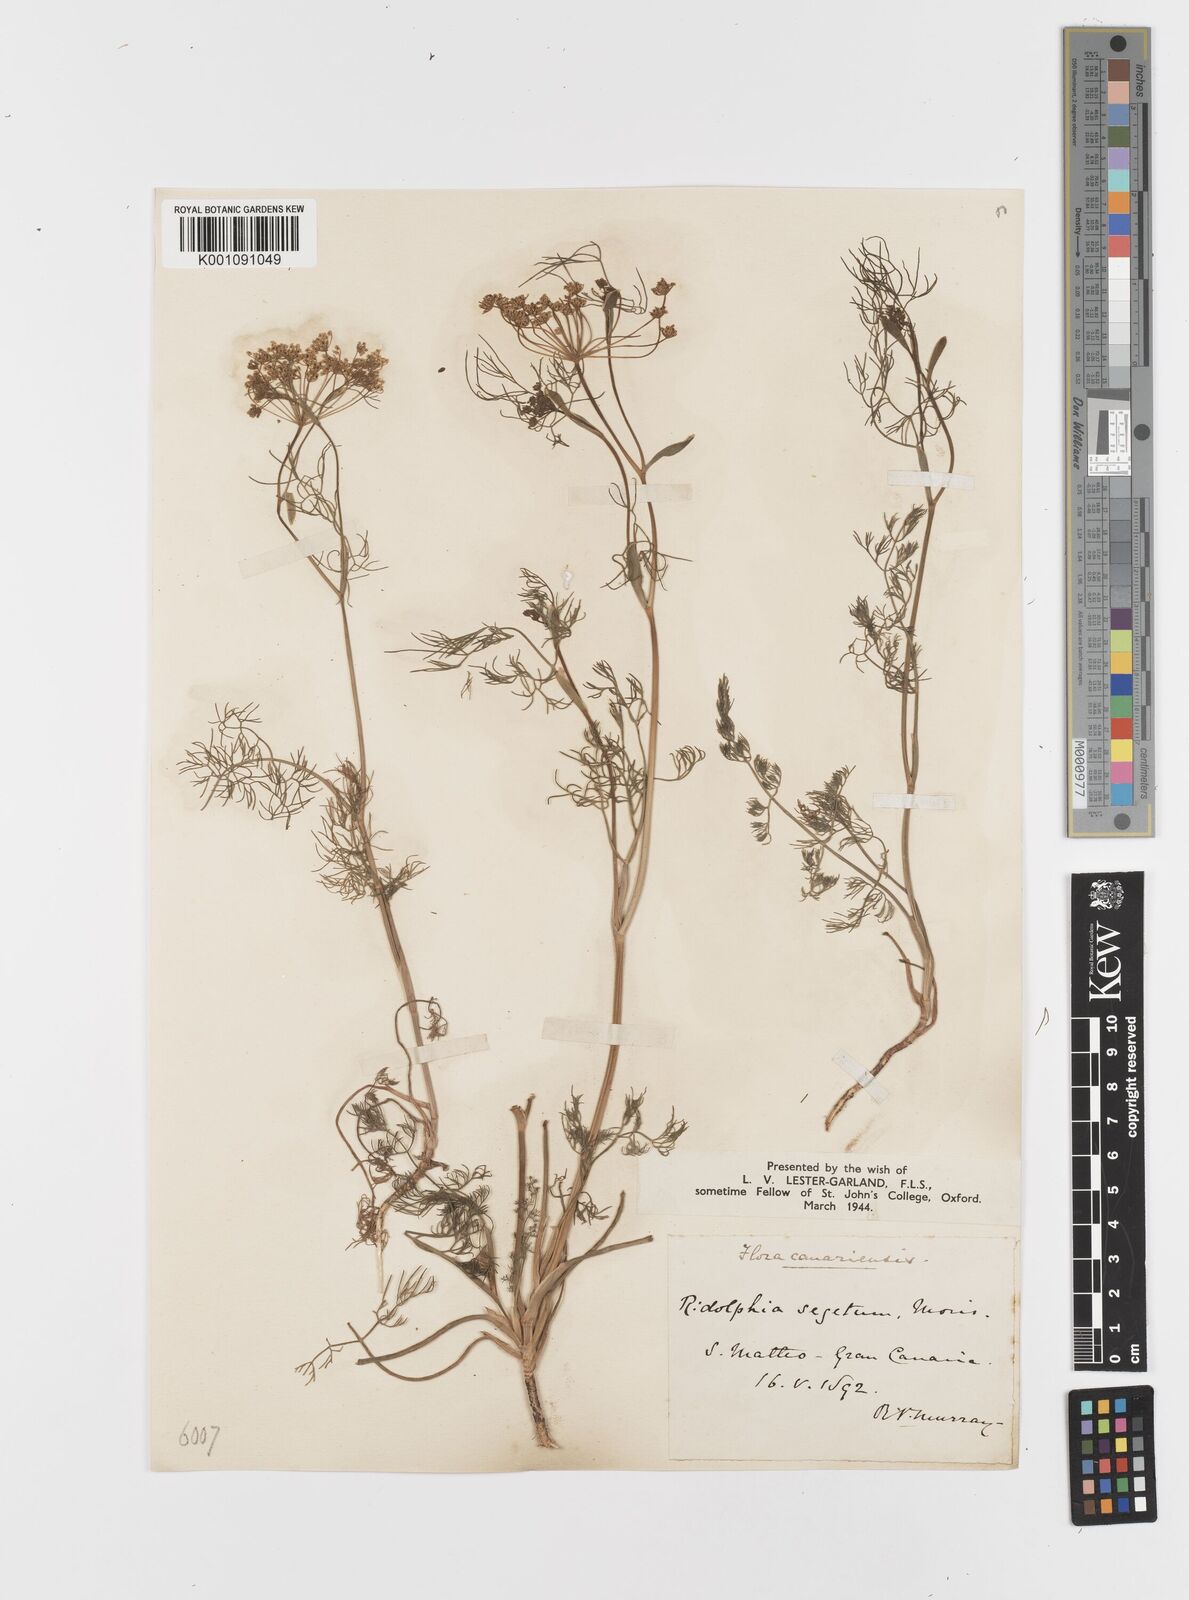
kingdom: Plantae
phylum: Tracheophyta
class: Magnoliopsida
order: Apiales
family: Apiaceae
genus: Anethum
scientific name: Anethum ridolfia
